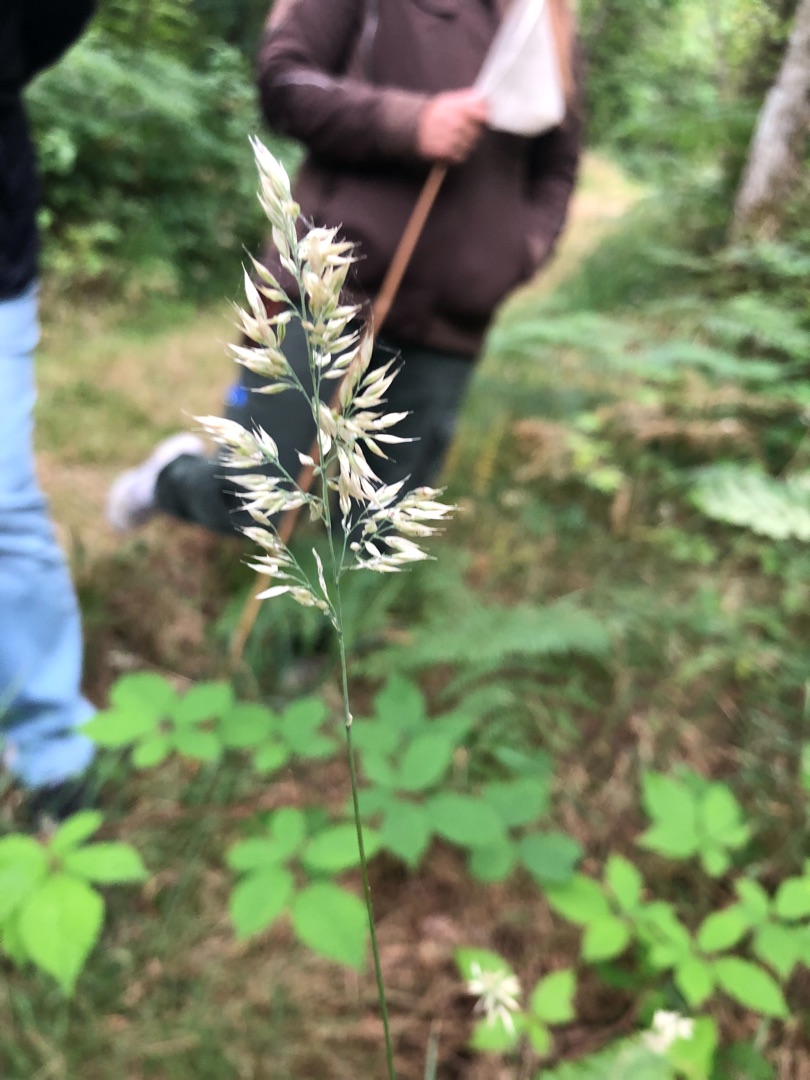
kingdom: Plantae
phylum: Tracheophyta
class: Liliopsida
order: Poales
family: Poaceae
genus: Holcus
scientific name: Holcus mollis
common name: Krybende hestegræs
